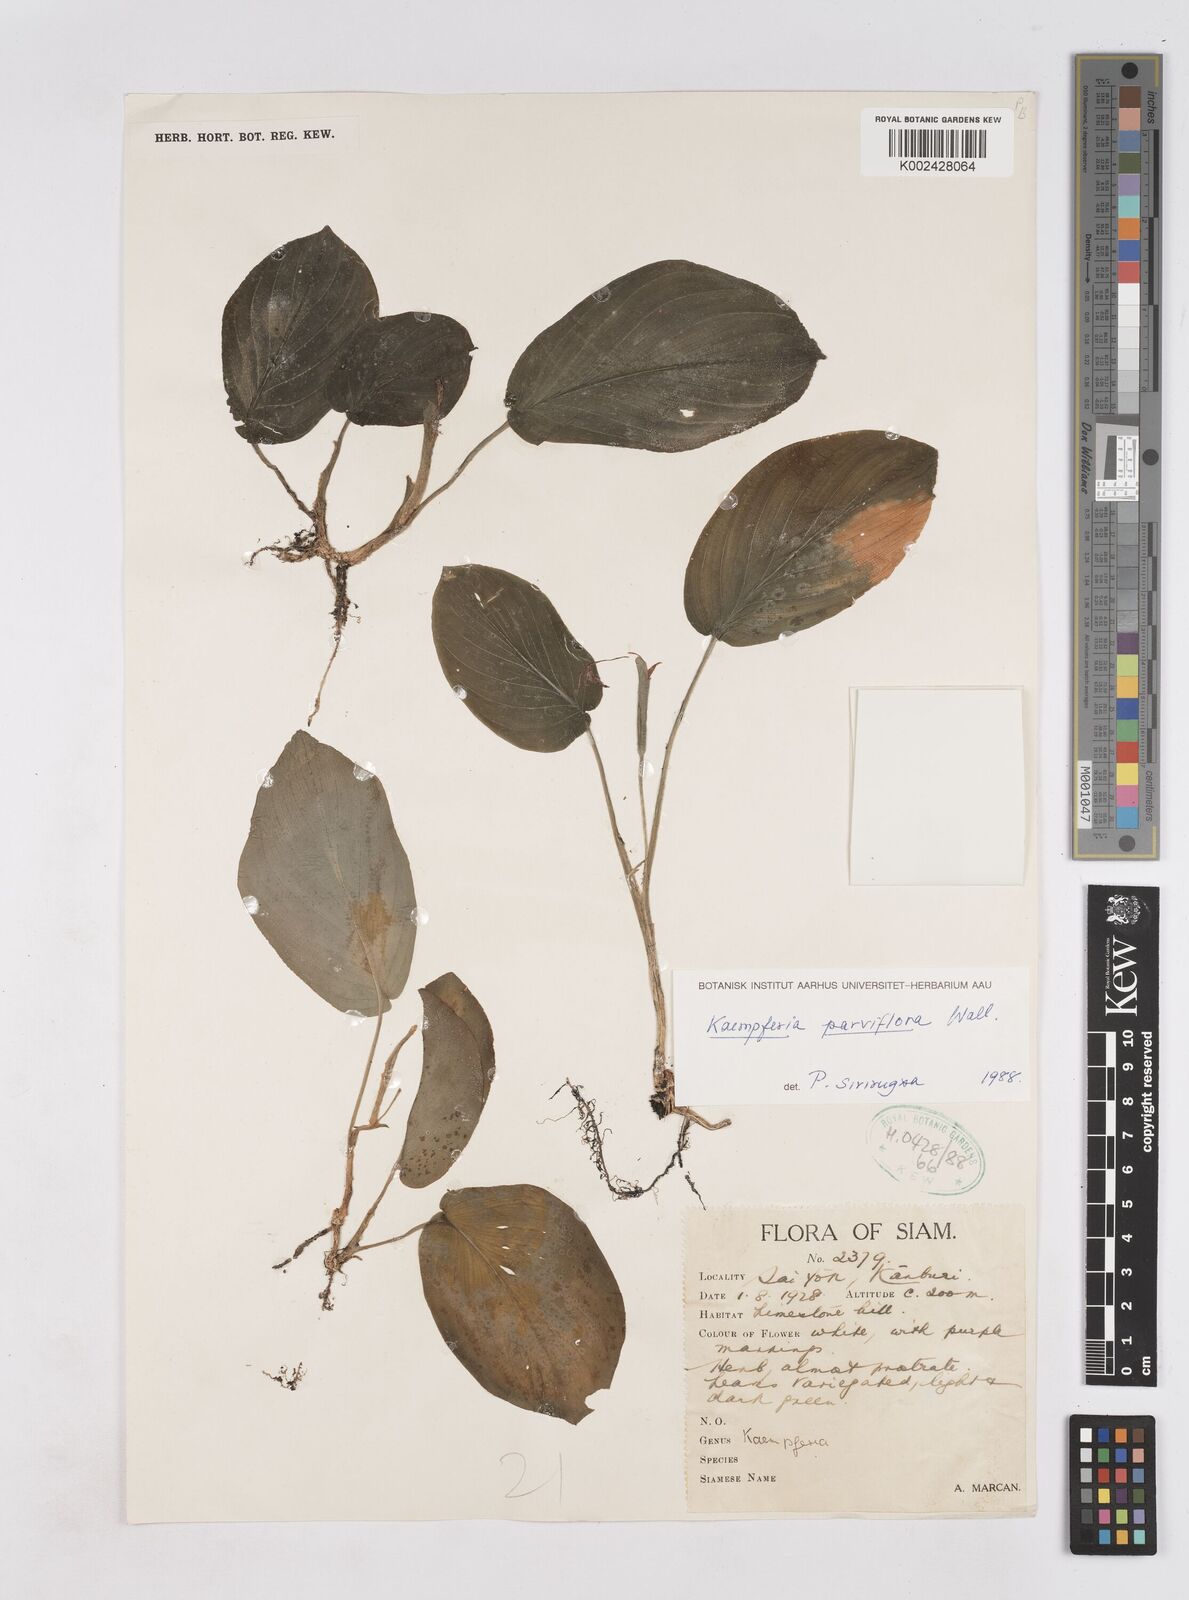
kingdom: Plantae
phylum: Tracheophyta
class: Liliopsida
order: Zingiberales
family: Zingiberaceae
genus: Kaempferia
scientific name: Kaempferia parviflora
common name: Black galingale
